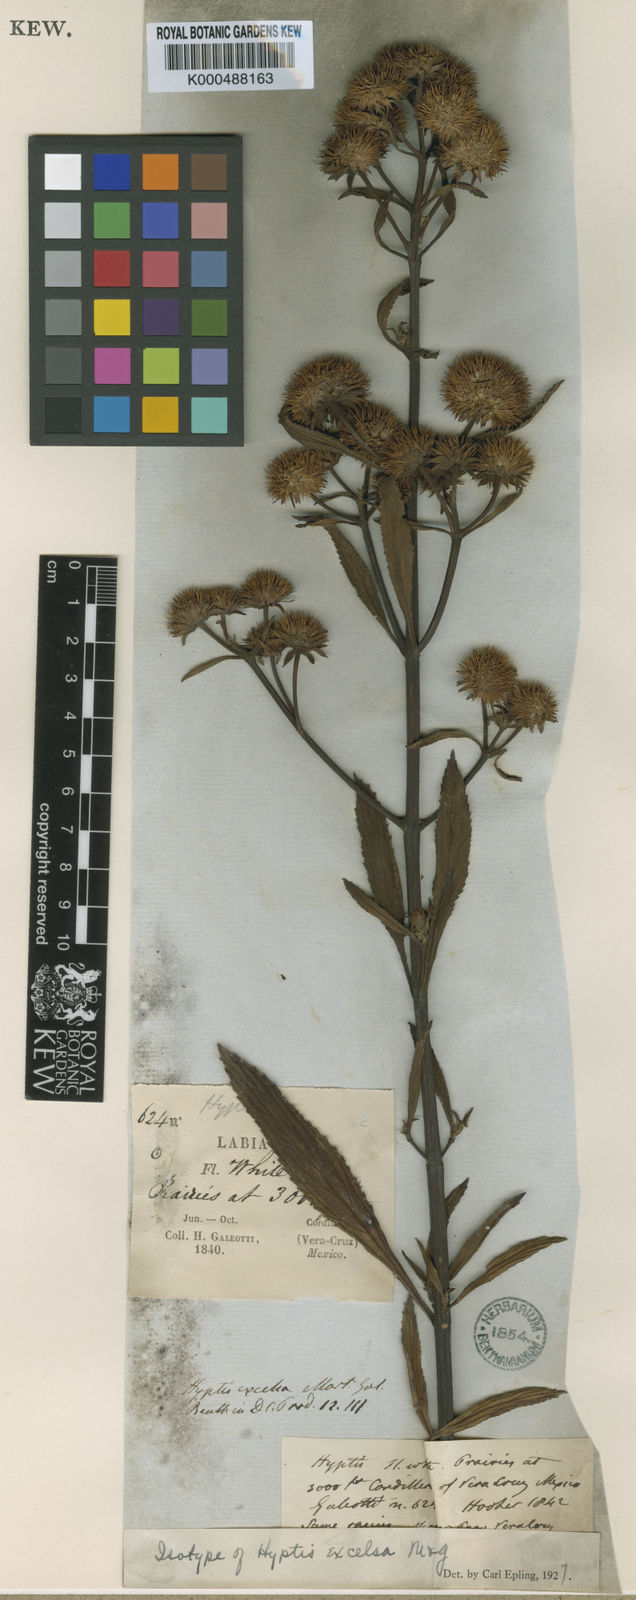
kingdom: Plantae
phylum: Tracheophyta
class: Magnoliopsida
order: Lamiales
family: Lamiaceae
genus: Hyptis
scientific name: Hyptis conferta
